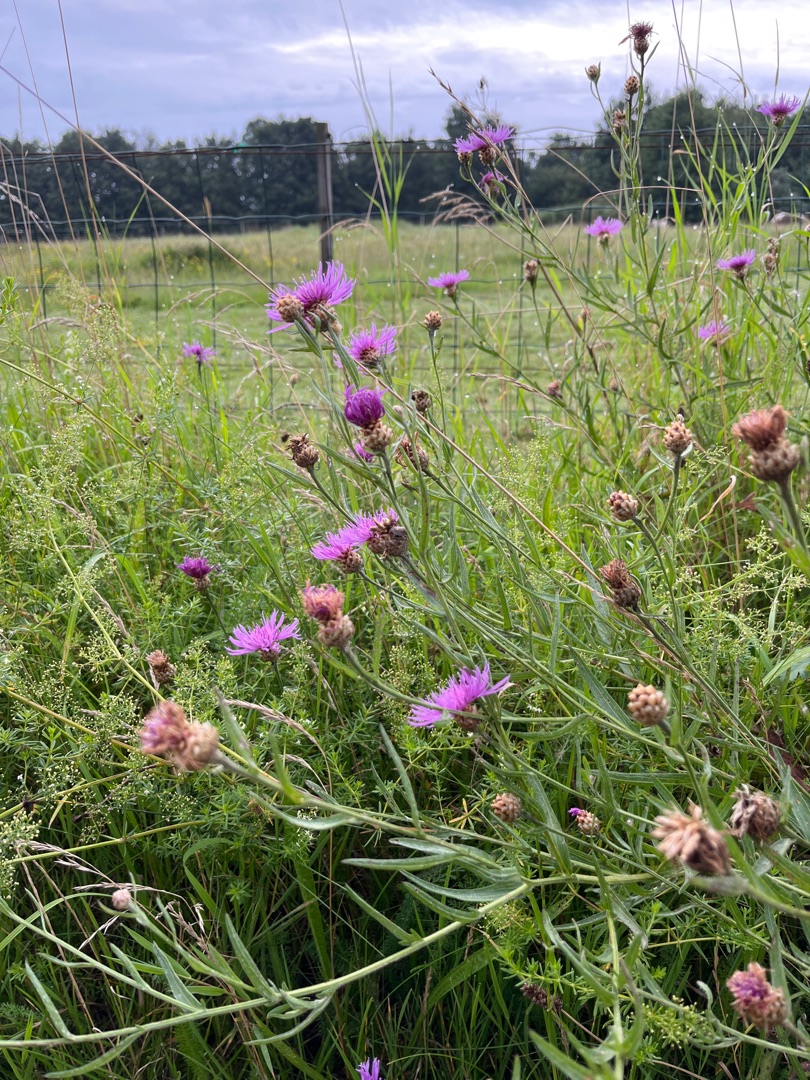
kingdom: Plantae
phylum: Tracheophyta
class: Magnoliopsida
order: Asterales
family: Asteraceae
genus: Centaurea
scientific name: Centaurea jacea
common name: Almindelig knopurt
